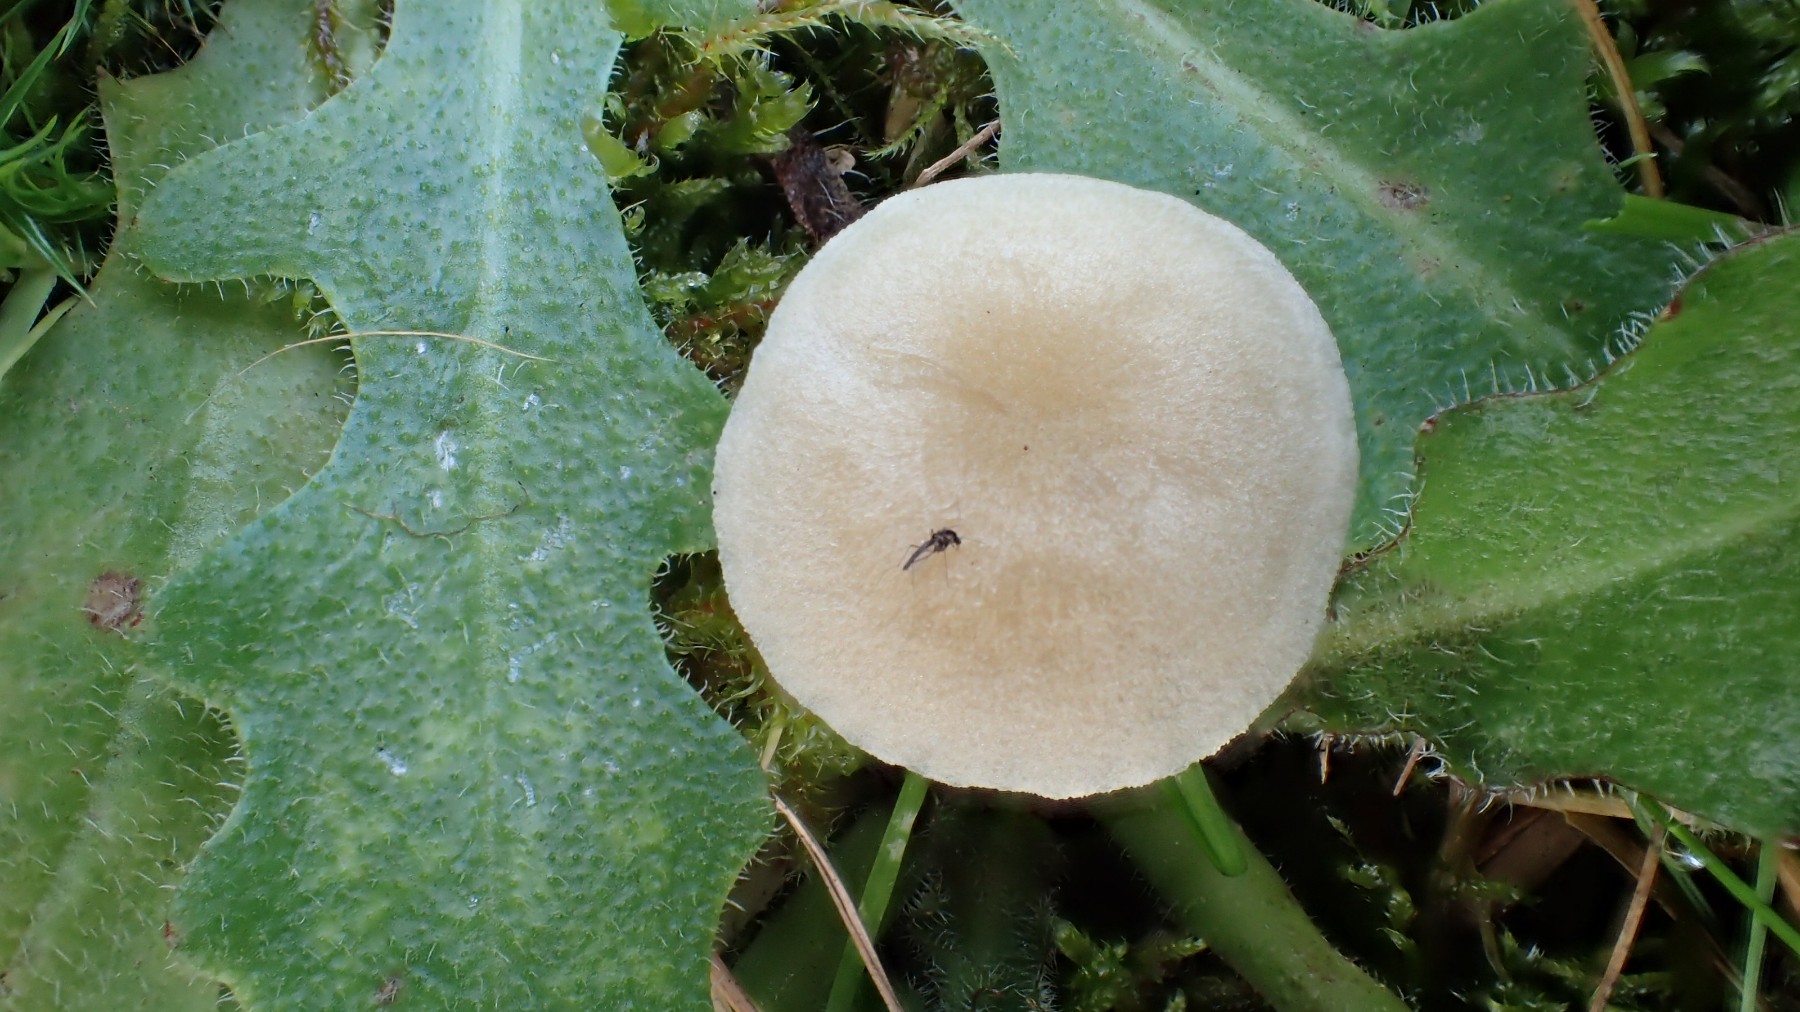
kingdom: Fungi
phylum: Basidiomycota
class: Agaricomycetes
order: Agaricales
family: Entolomataceae
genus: Entoloma
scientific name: Entoloma sericellum
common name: silkehvid rødblad
